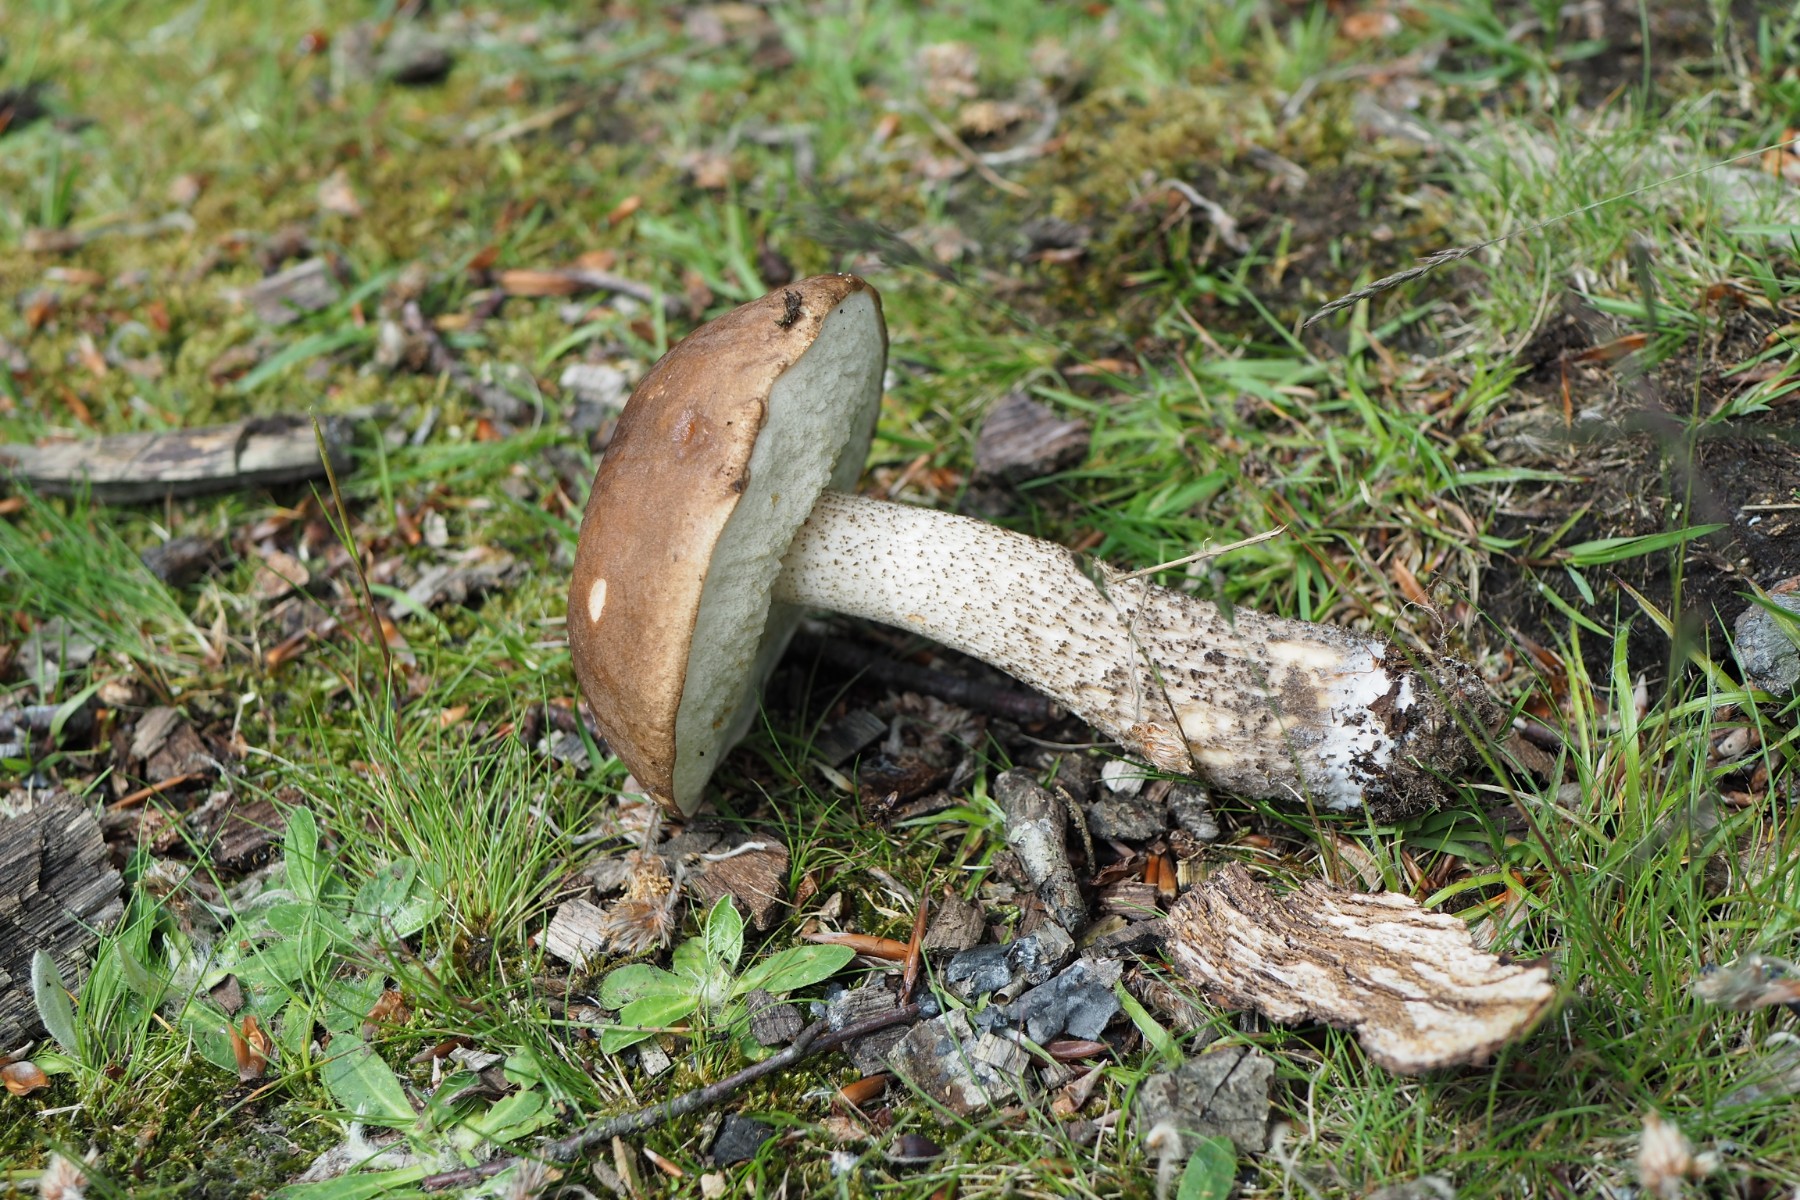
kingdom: Fungi
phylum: Basidiomycota
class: Agaricomycetes
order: Boletales
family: Boletaceae
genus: Leccinum
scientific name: Leccinum scabrum
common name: brun skælrørhat
